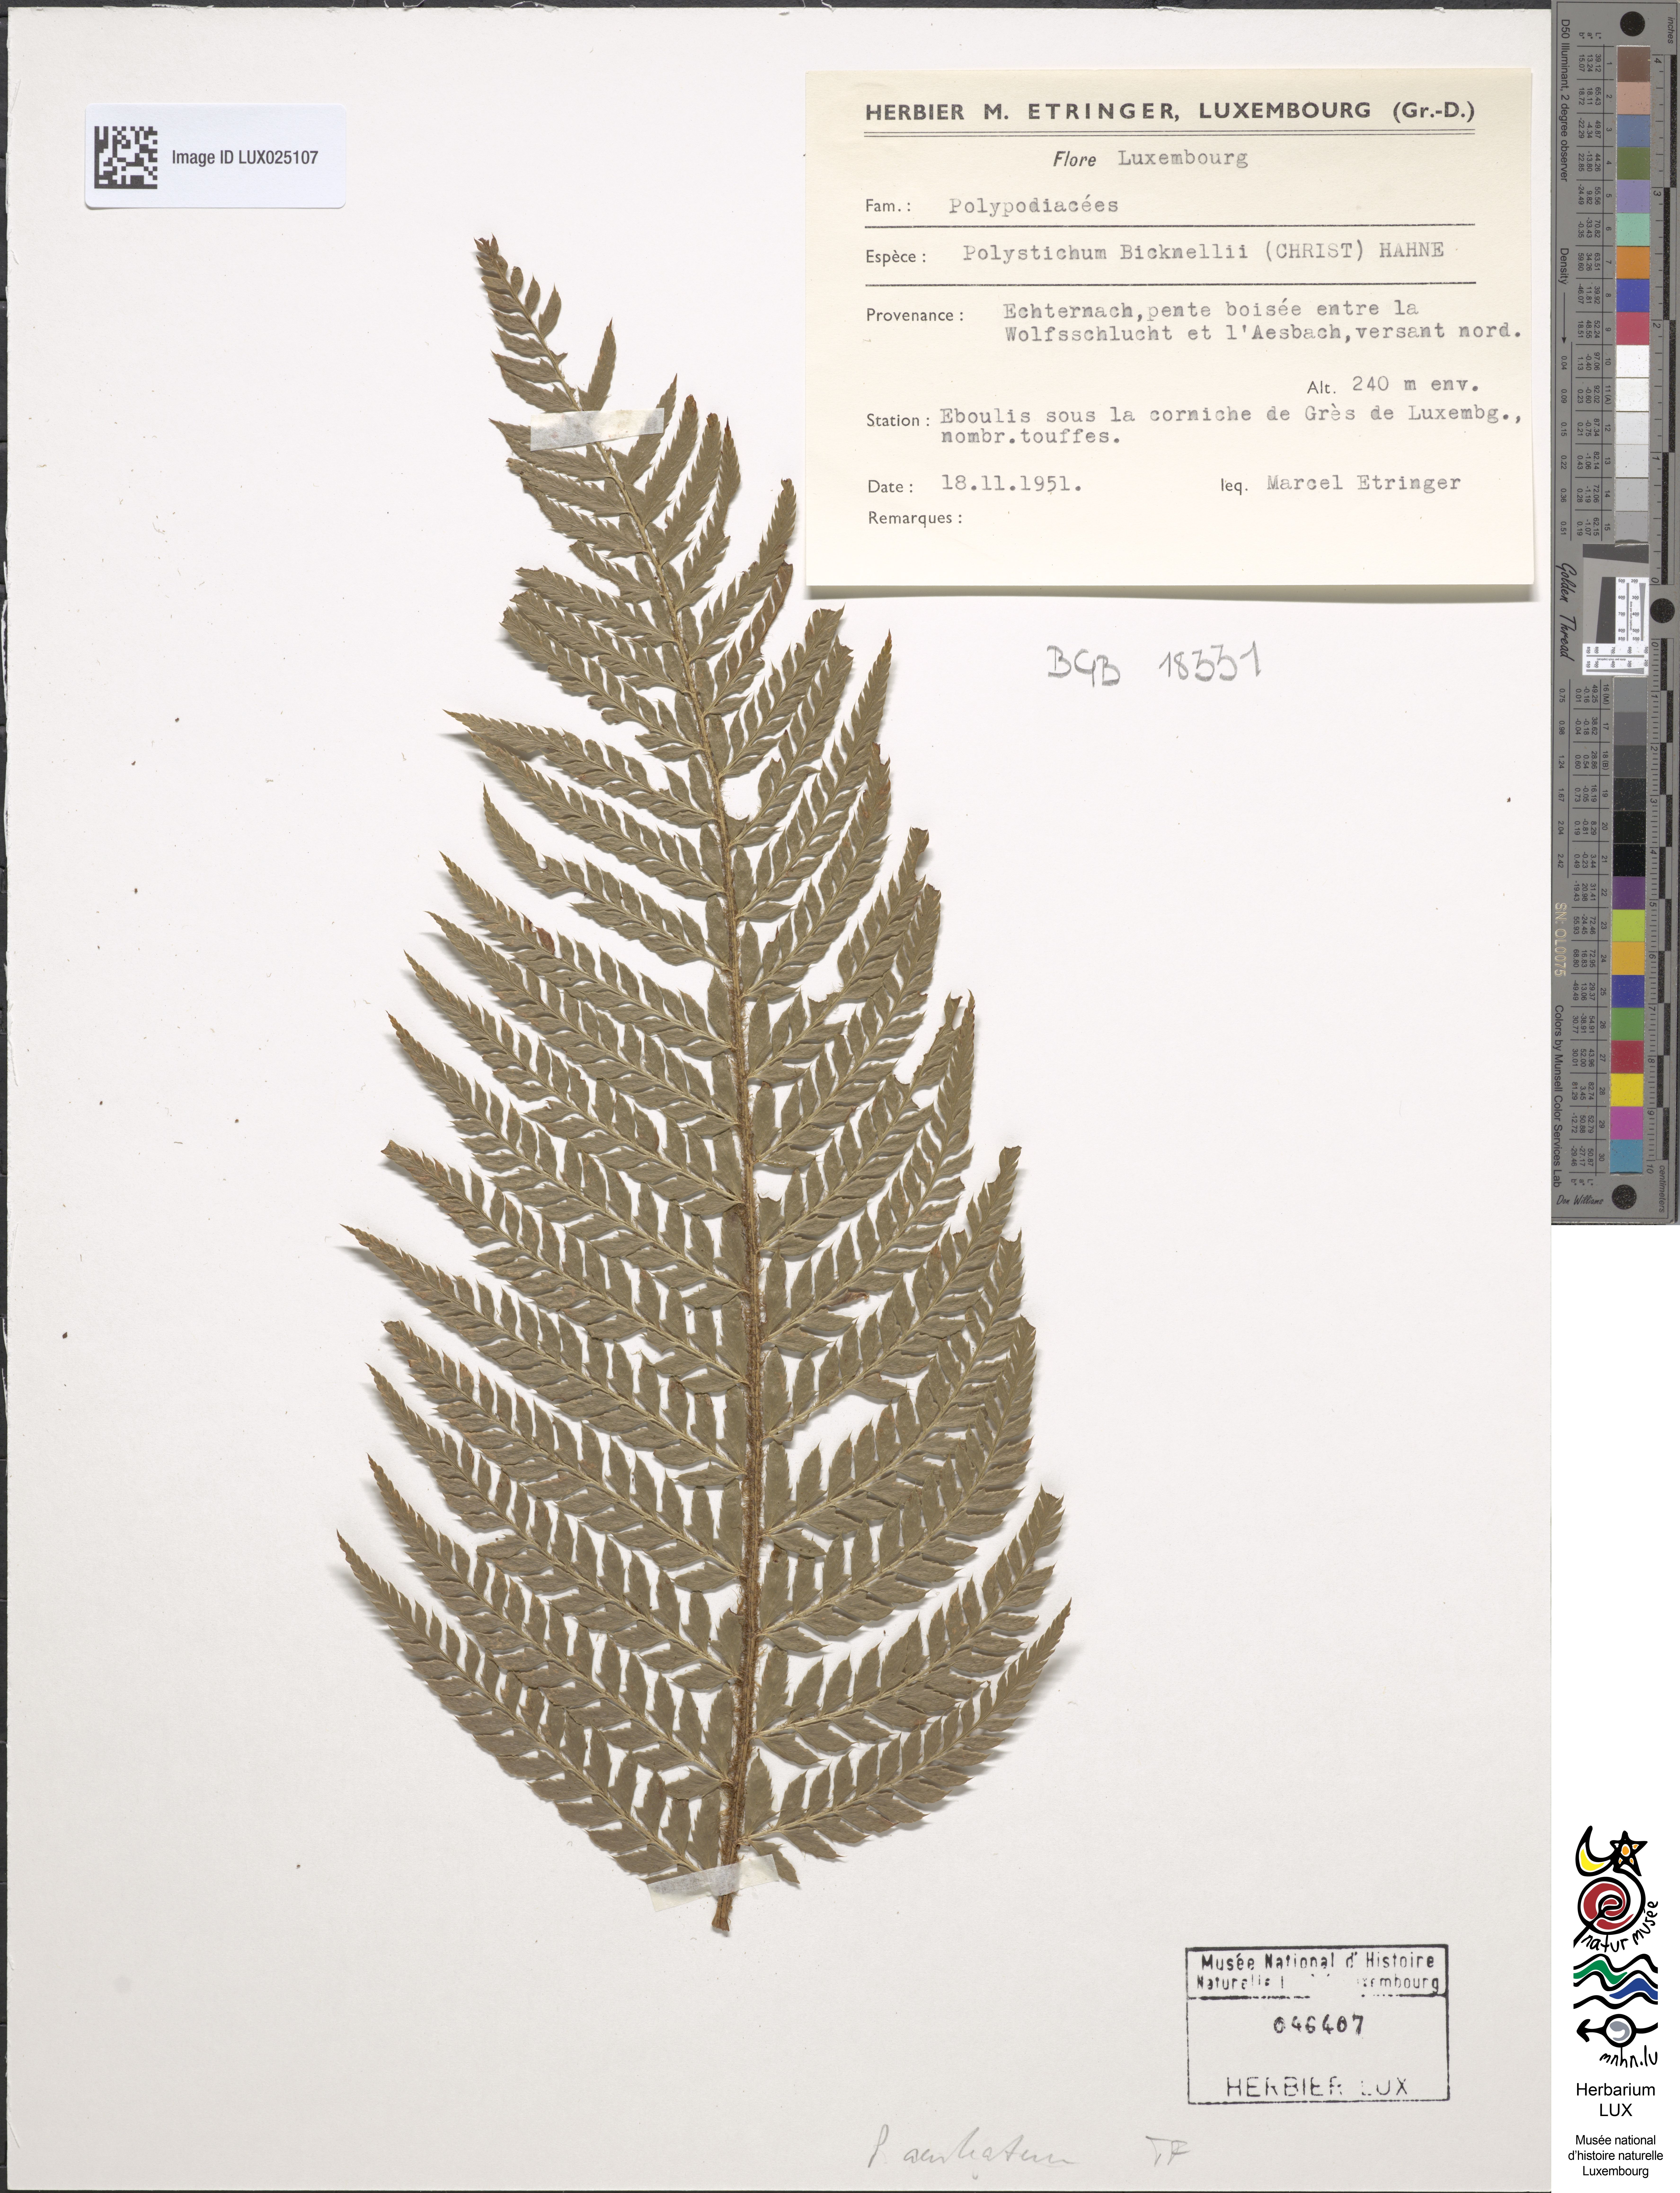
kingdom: Plantae
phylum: Tracheophyta
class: Polypodiopsida
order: Polypodiales
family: Dryopteridaceae
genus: Polystichum
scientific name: Polystichum aculeatum
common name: Hard shield-fern
